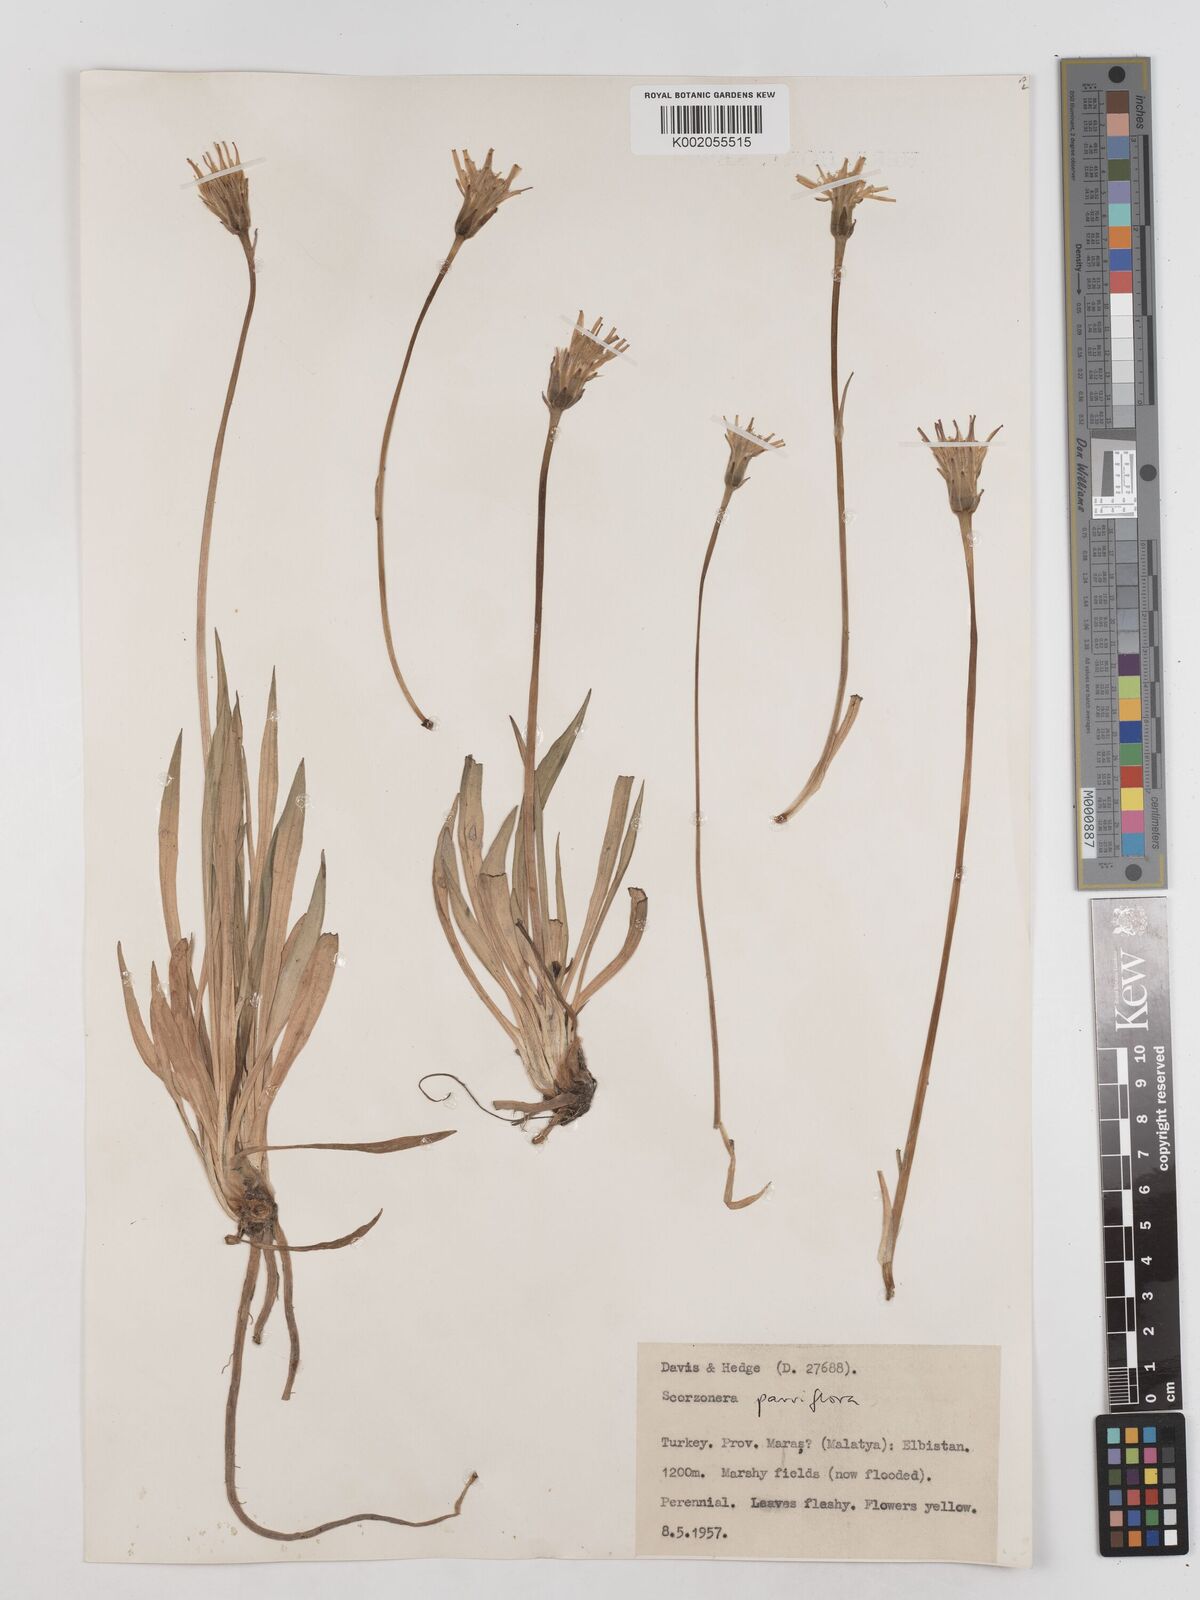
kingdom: Plantae
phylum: Tracheophyta
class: Magnoliopsida
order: Asterales
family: Asteraceae
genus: Scorzonera
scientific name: Scorzonera parviflora
